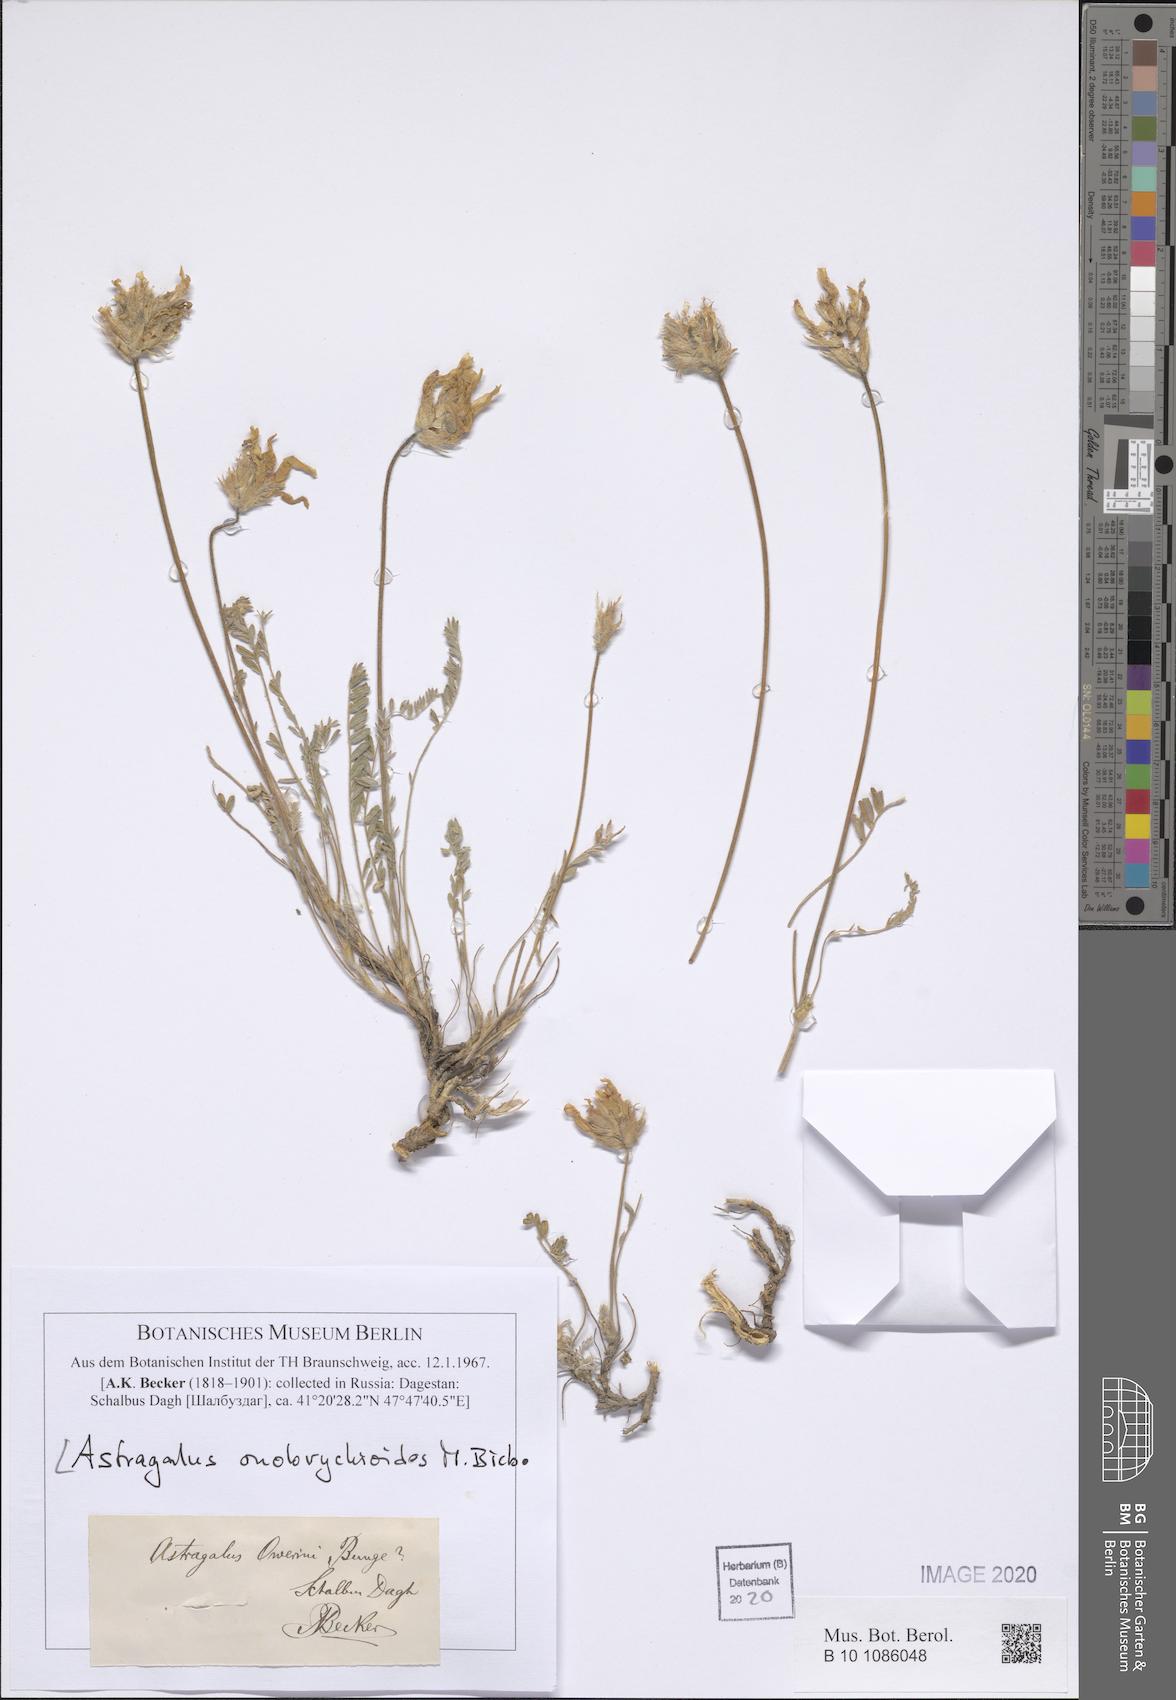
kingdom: Plantae
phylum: Tracheophyta
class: Magnoliopsida
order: Fabales
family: Fabaceae
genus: Astragalus
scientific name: Astragalus onobrychioides
